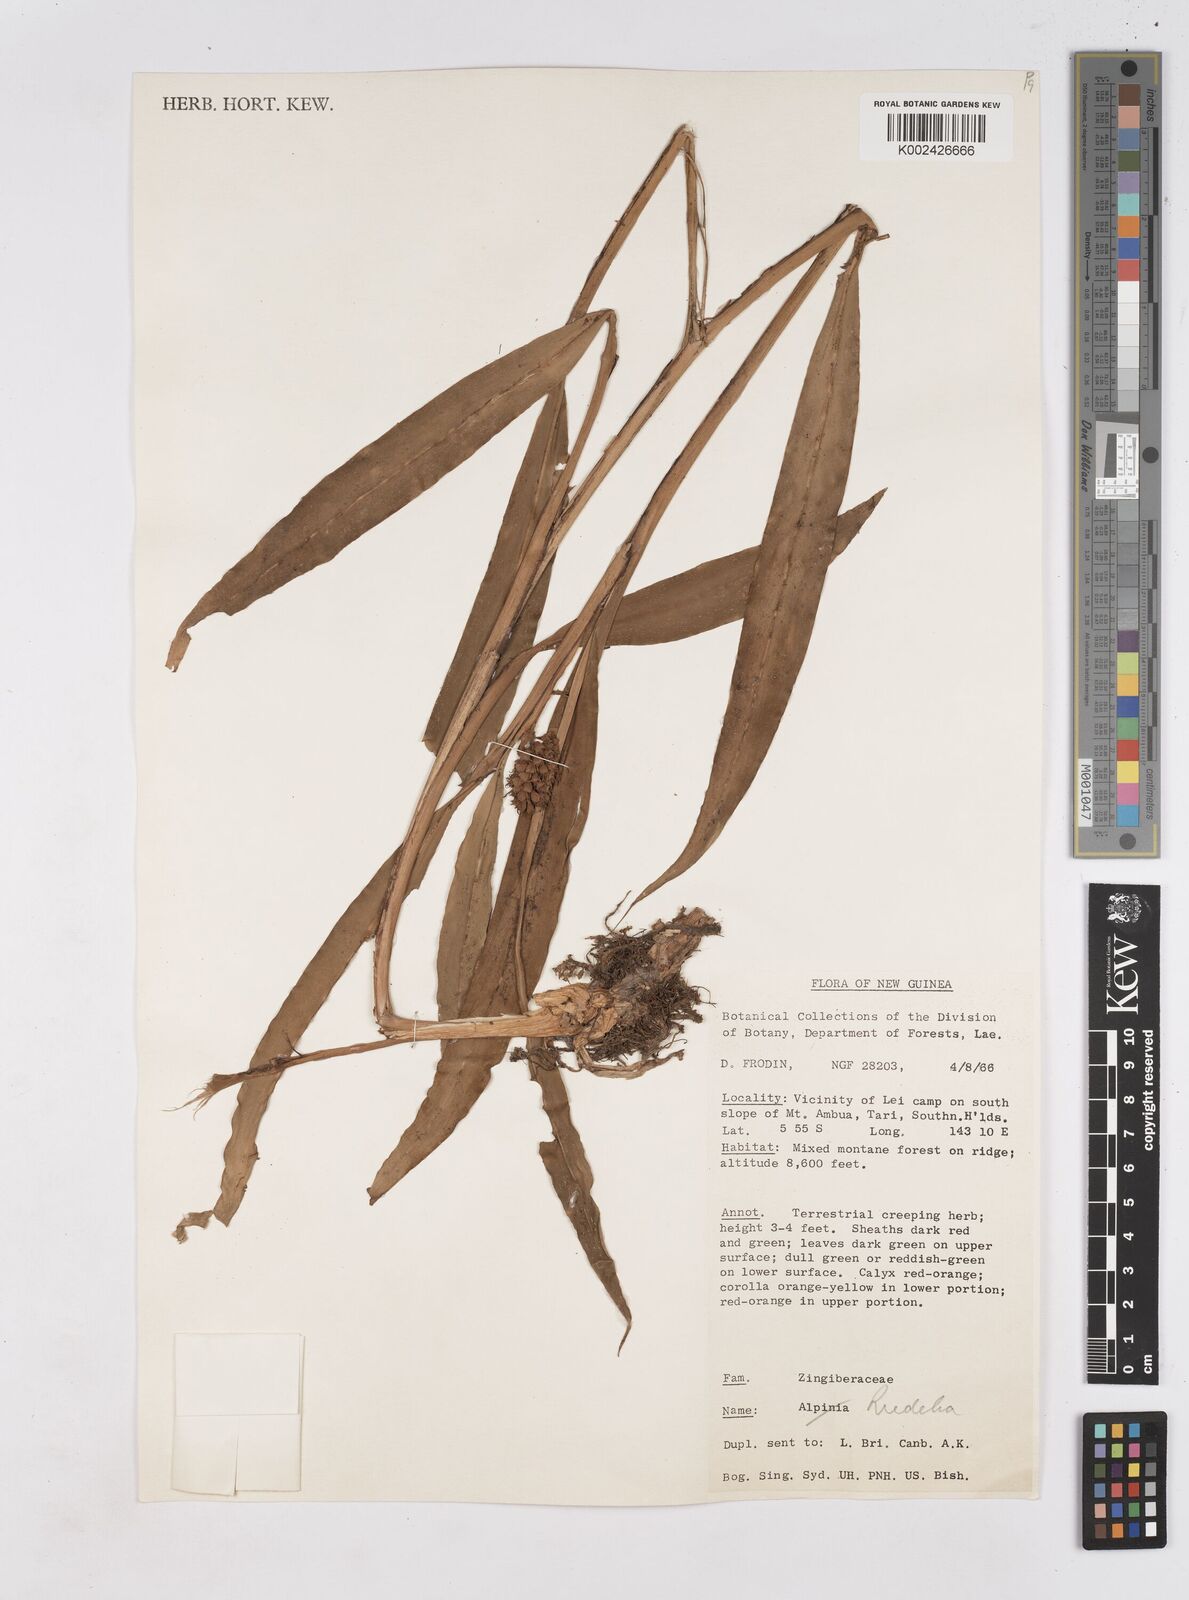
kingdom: Plantae
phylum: Tracheophyta
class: Liliopsida
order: Zingiberales
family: Zingiberaceae
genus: Riedelia
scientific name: Riedelia
